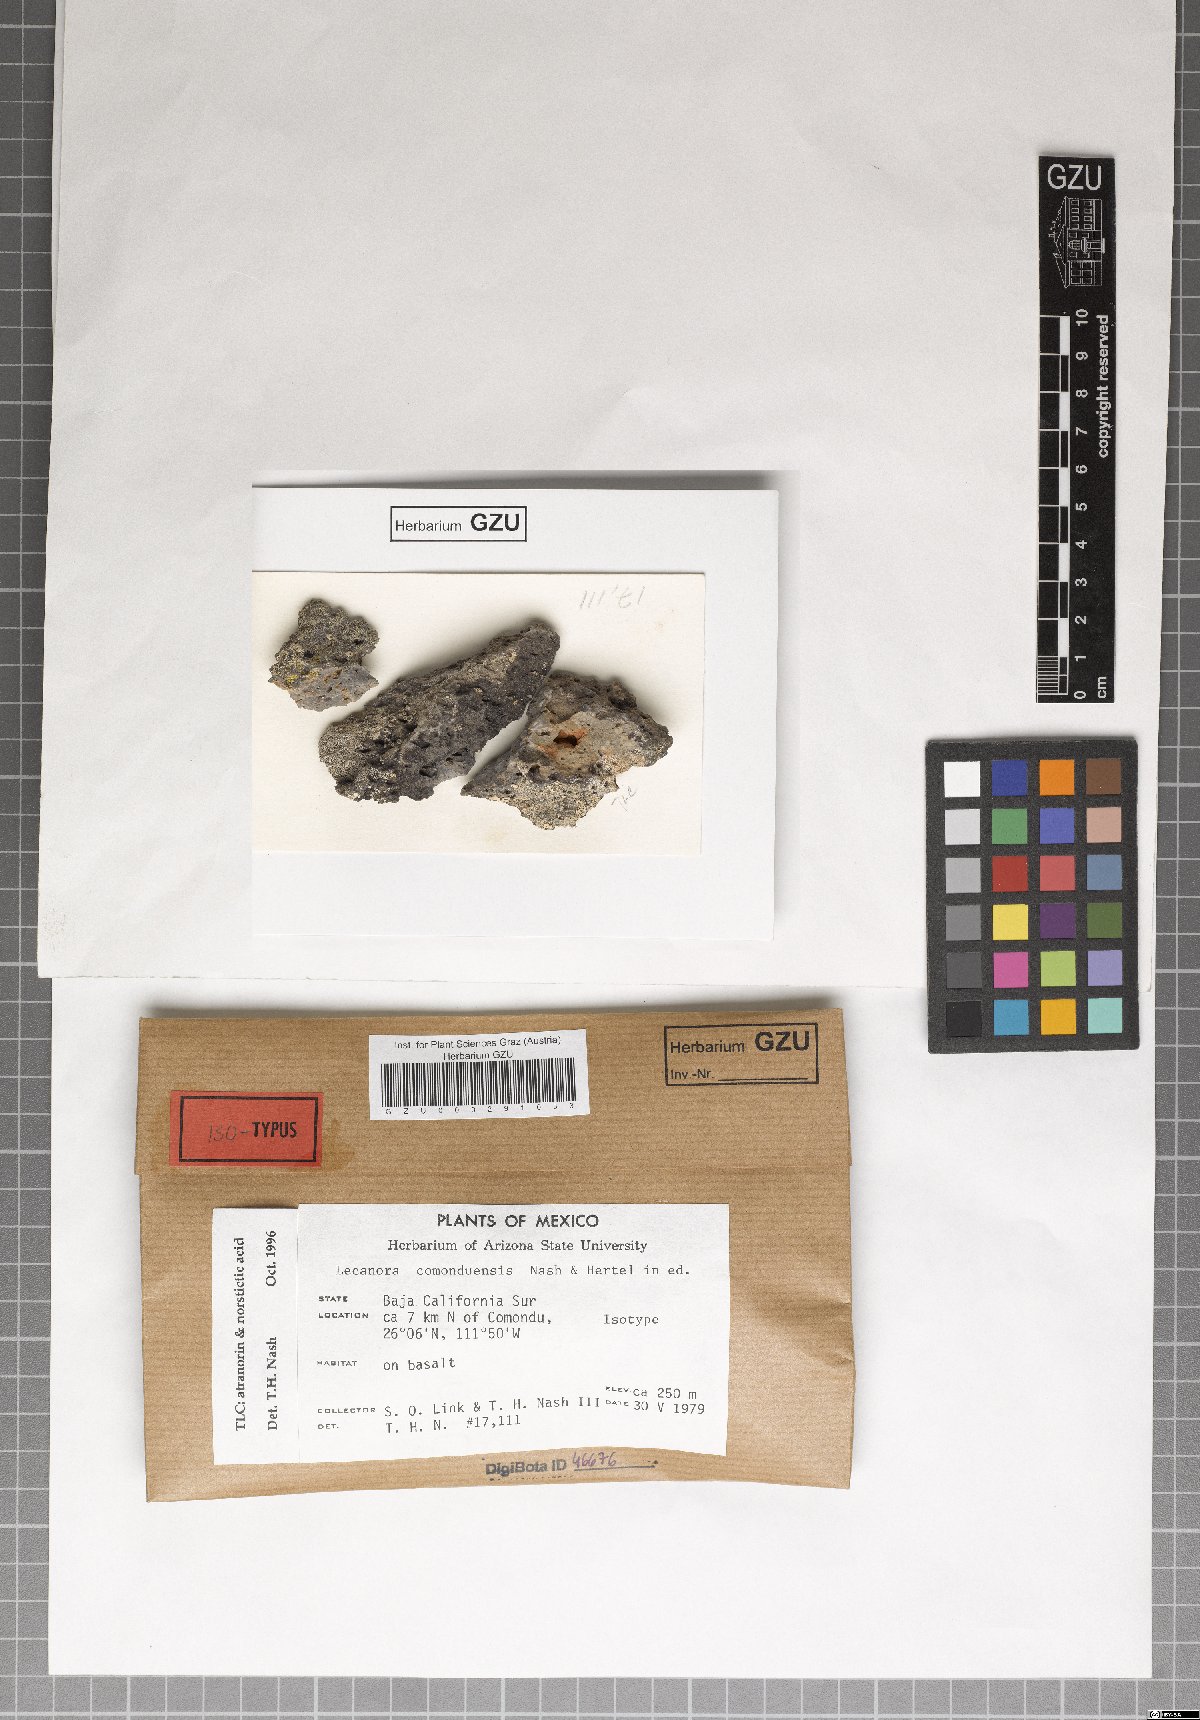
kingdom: Fungi
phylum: Ascomycota
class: Lecanoromycetes
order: Lecanorales
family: Lecanoraceae
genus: Lecanora
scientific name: Lecanora comoduensis
